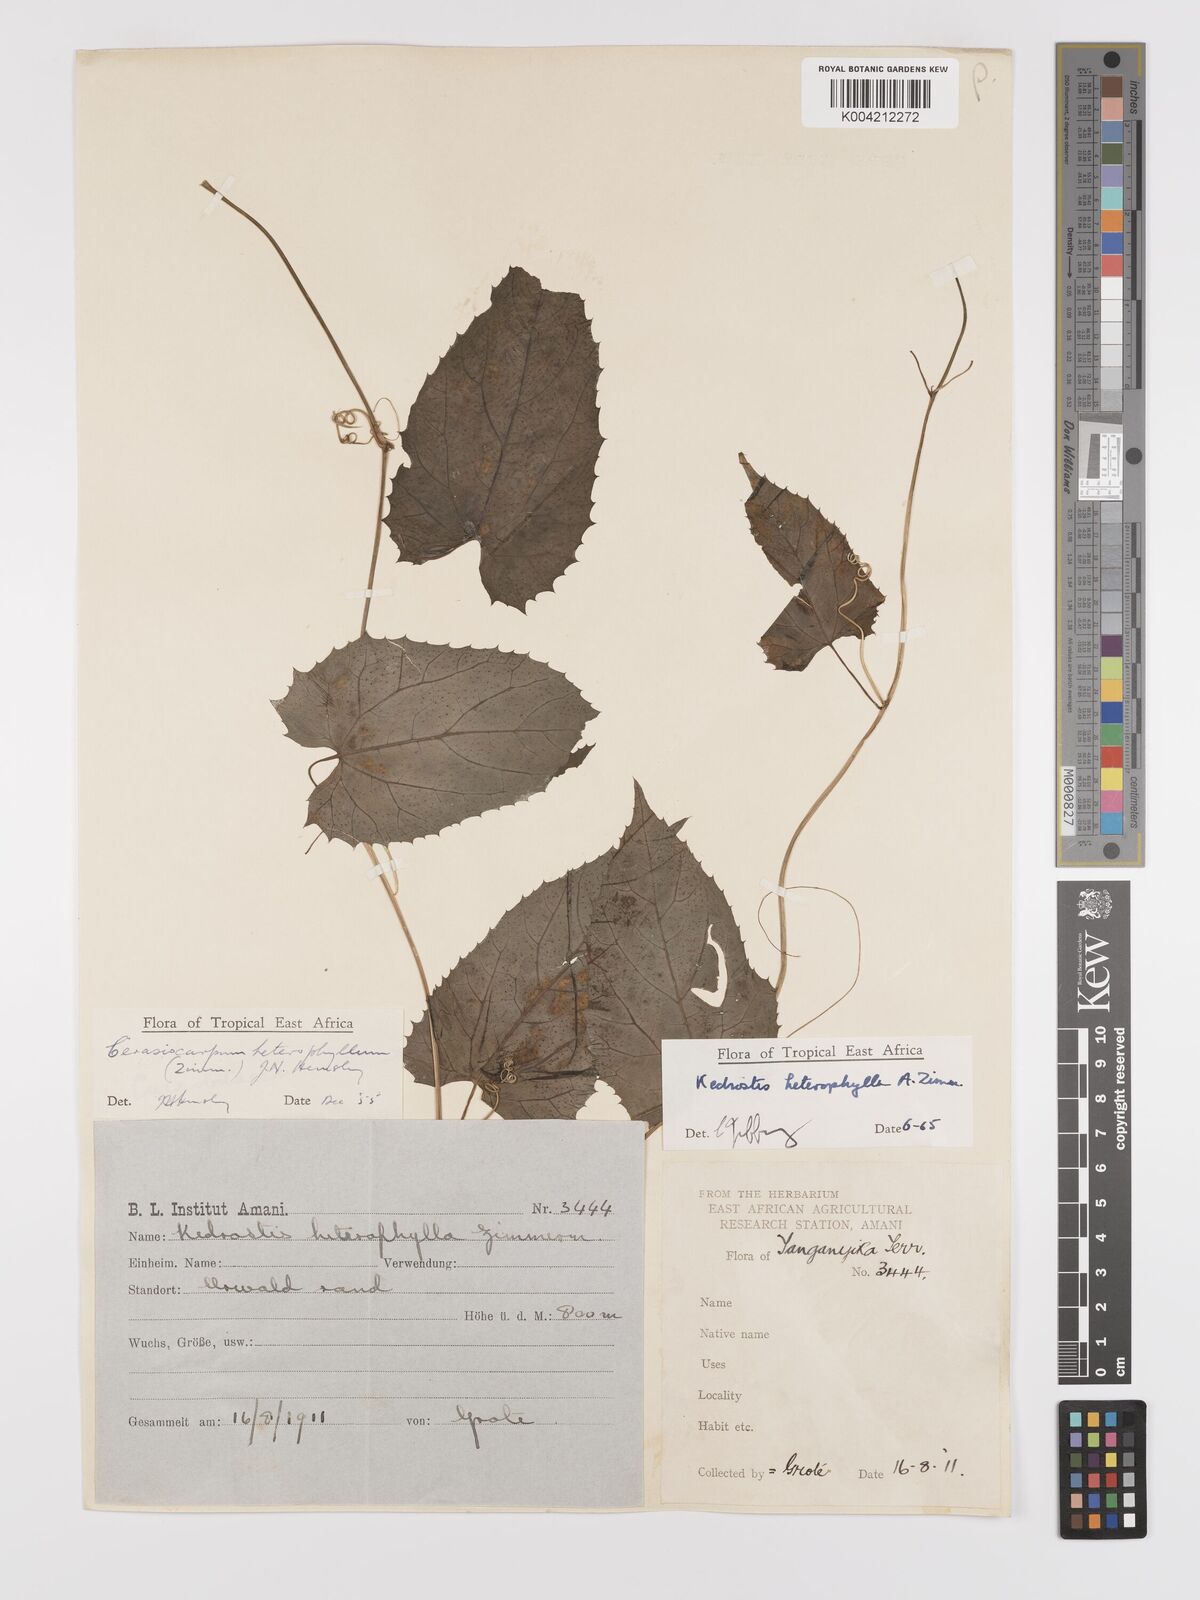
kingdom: Plantae
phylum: Tracheophyta
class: Magnoliopsida
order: Cucurbitales
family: Cucurbitaceae
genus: Kedrostis
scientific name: Kedrostis heterophylla
